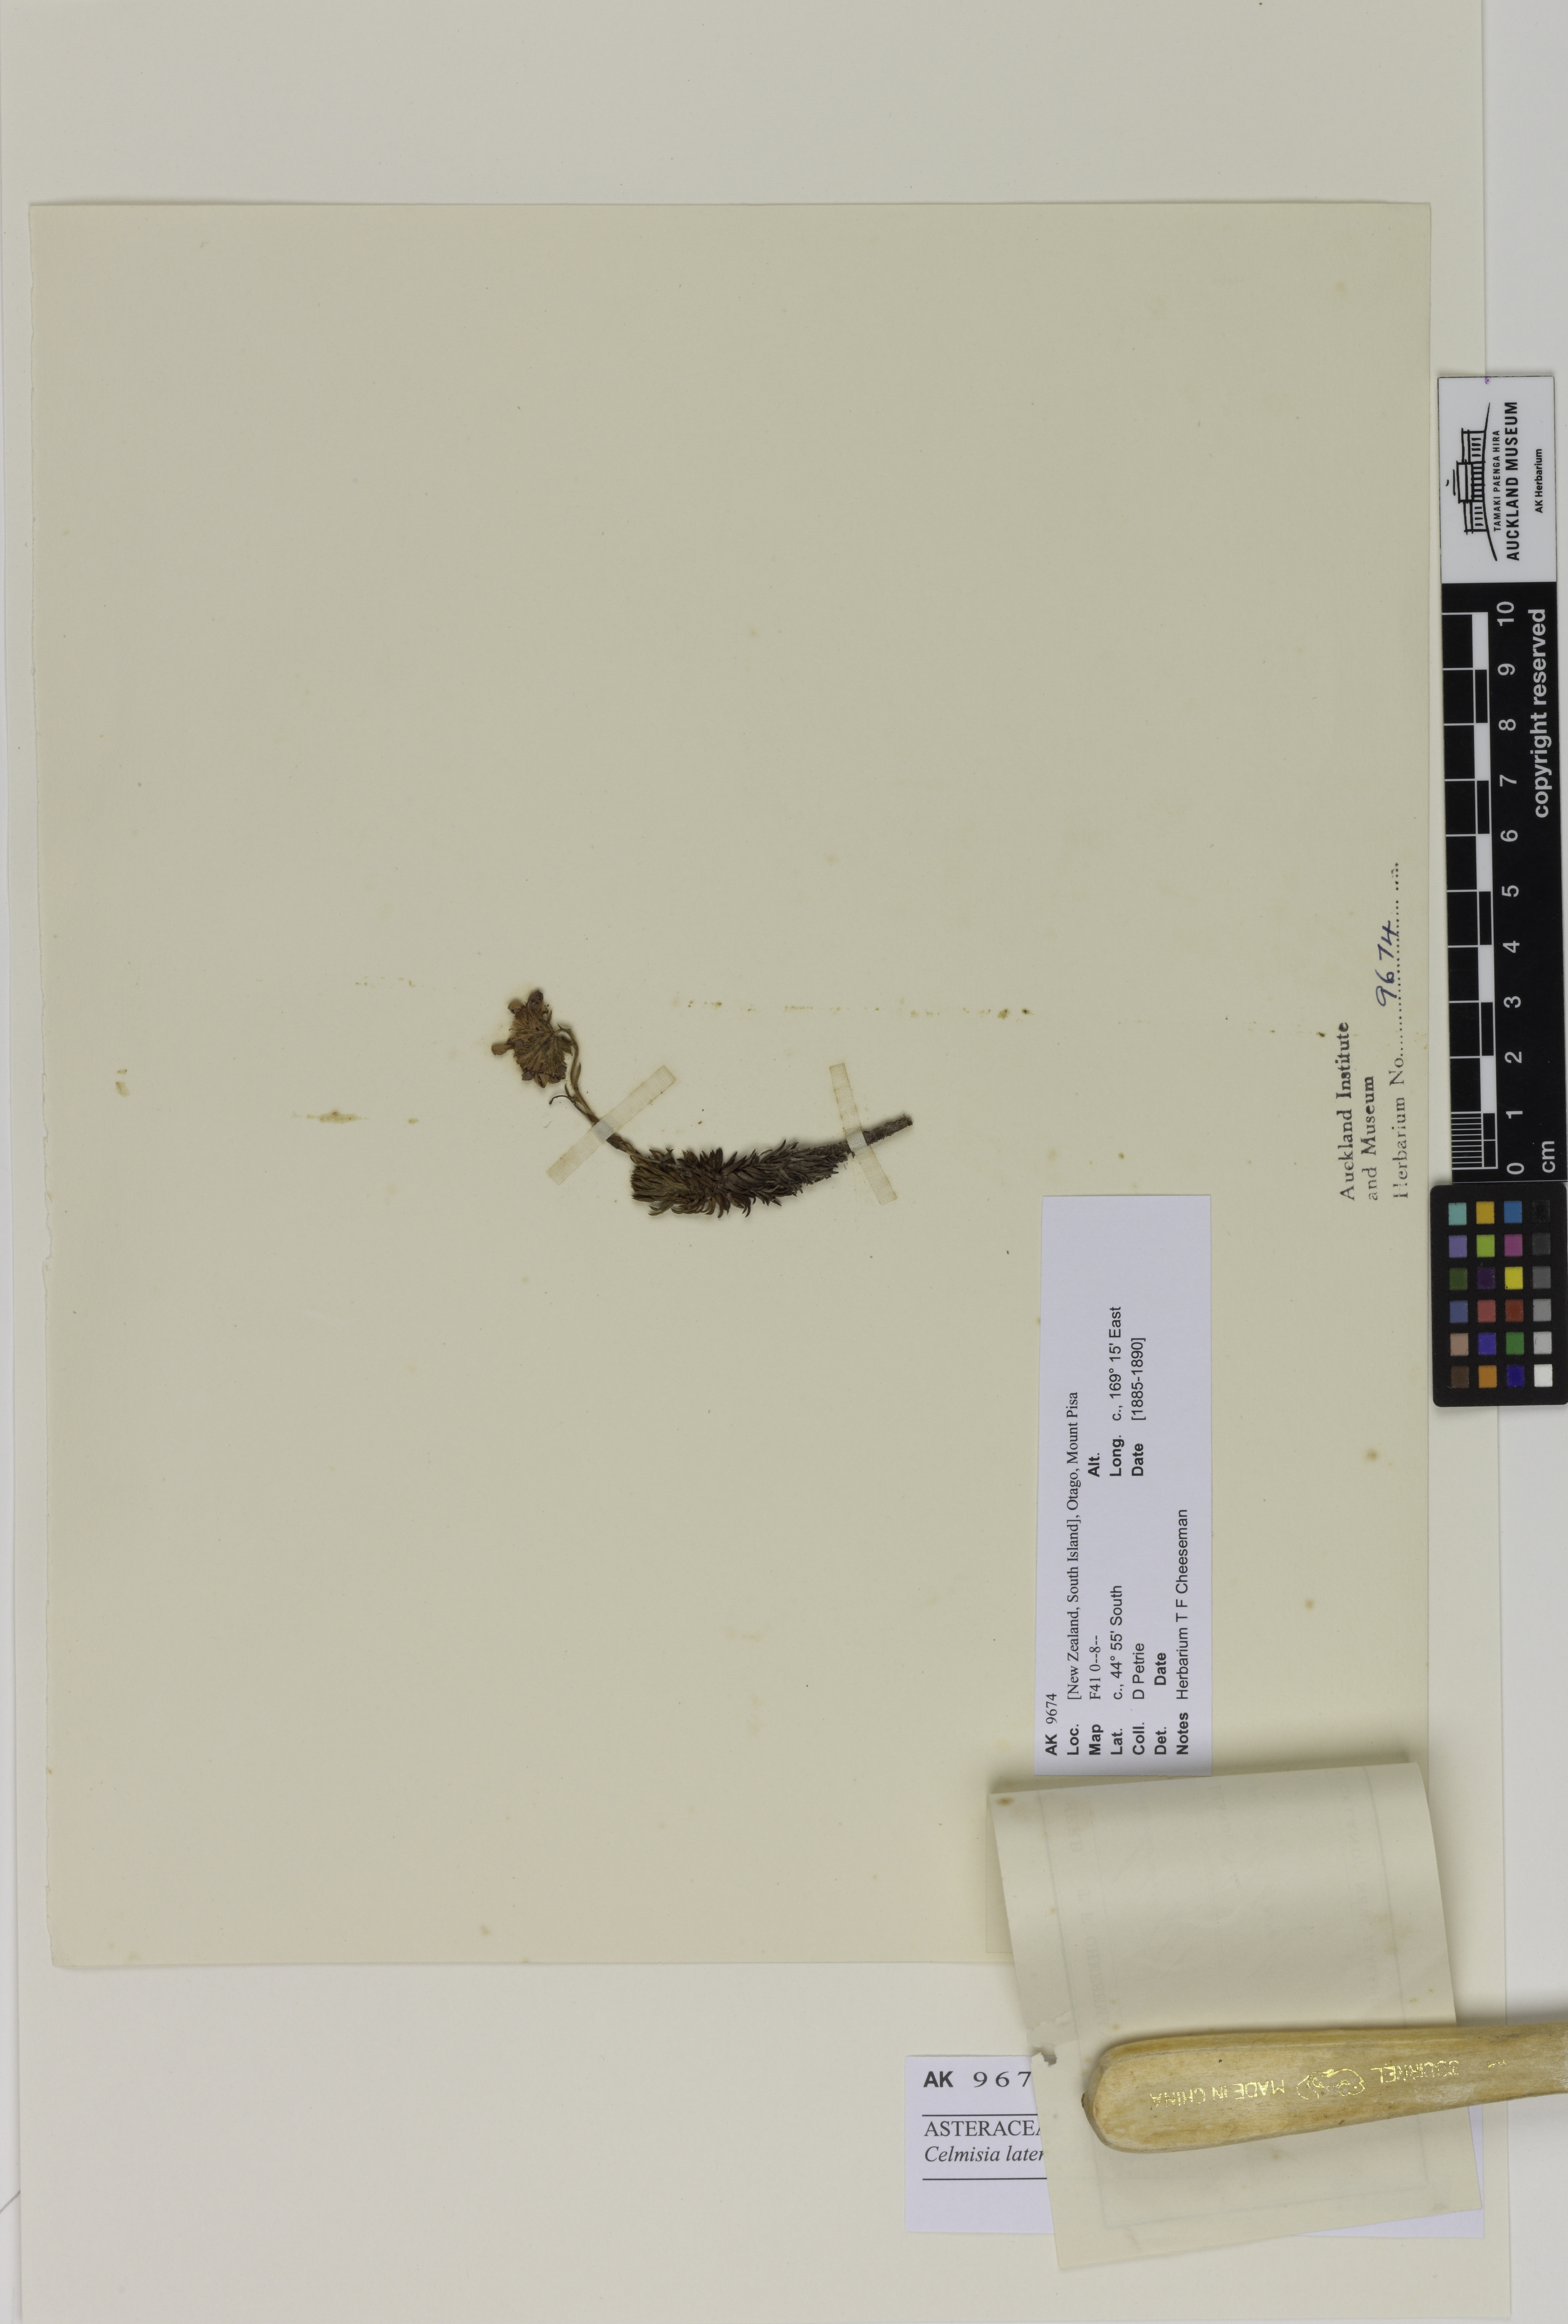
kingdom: Plantae
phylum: Tracheophyta
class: Magnoliopsida
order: Asterales
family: Asteraceae
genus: Celmisia
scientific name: Celmisia lateralis
